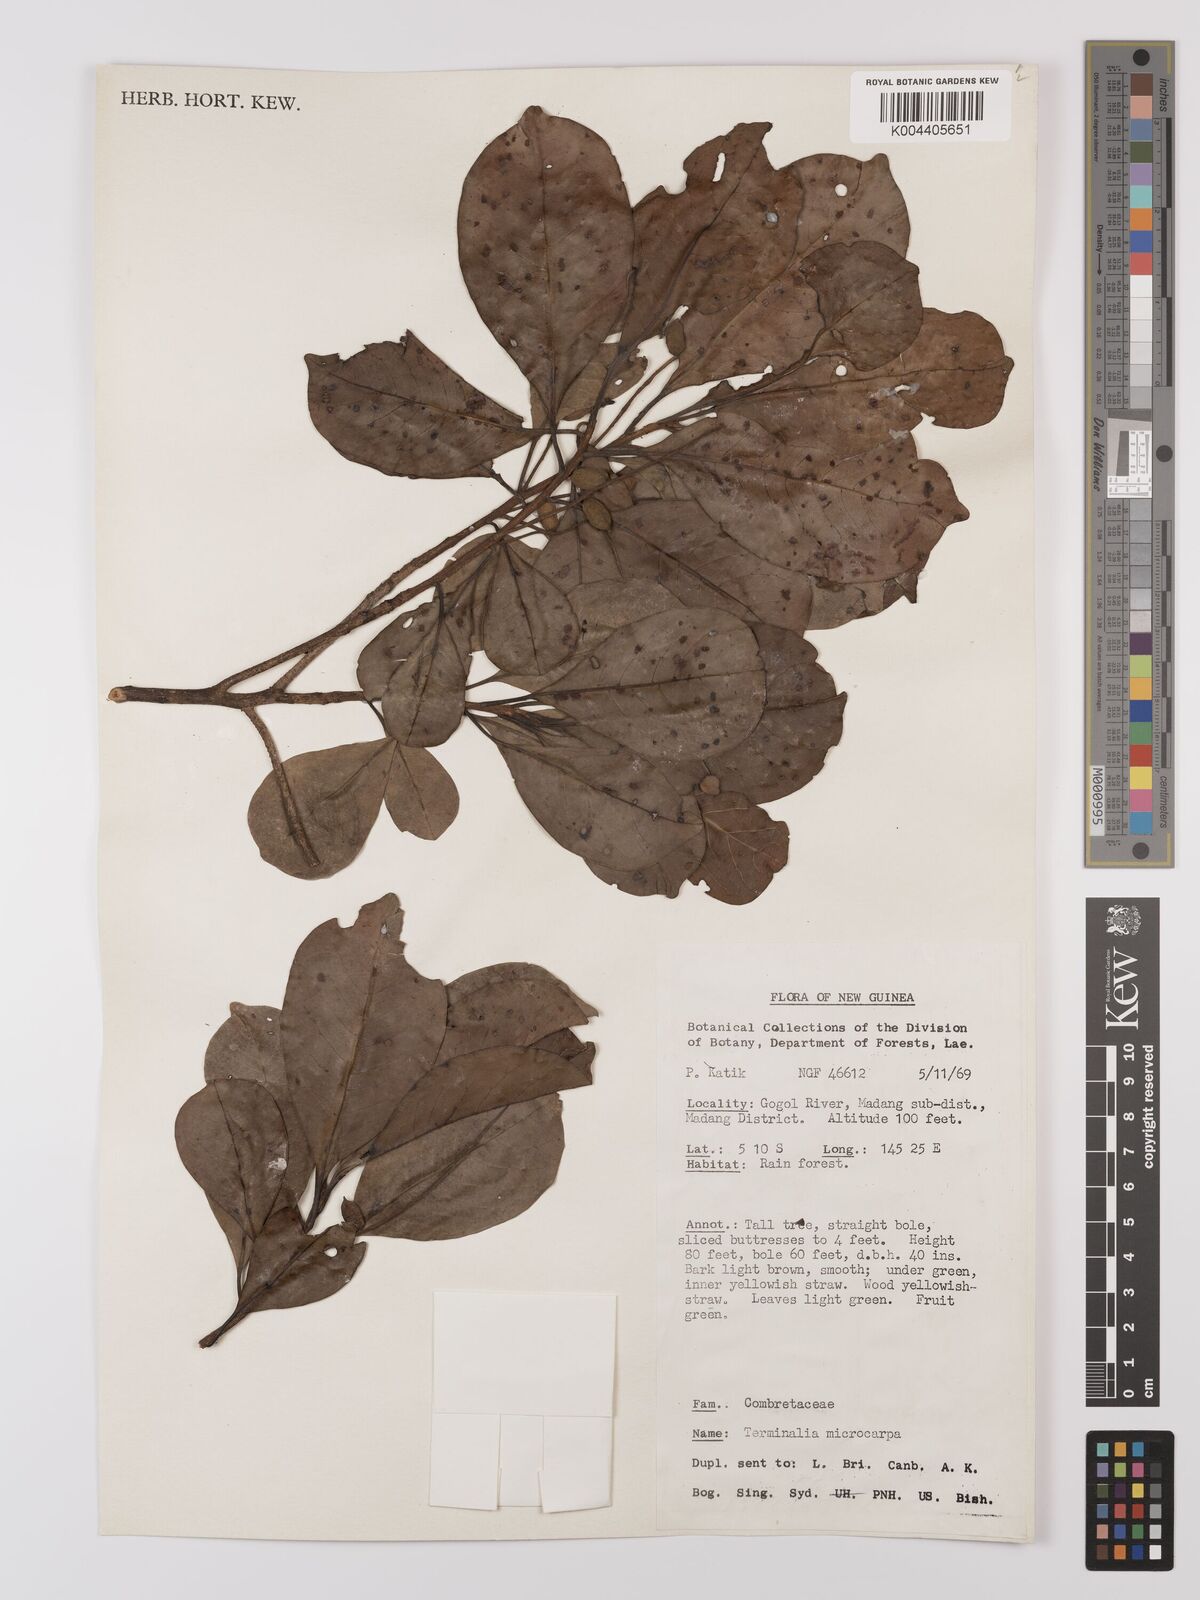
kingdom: Plantae
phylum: Tracheophyta
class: Magnoliopsida
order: Myrtales
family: Combretaceae
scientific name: Combretaceae
